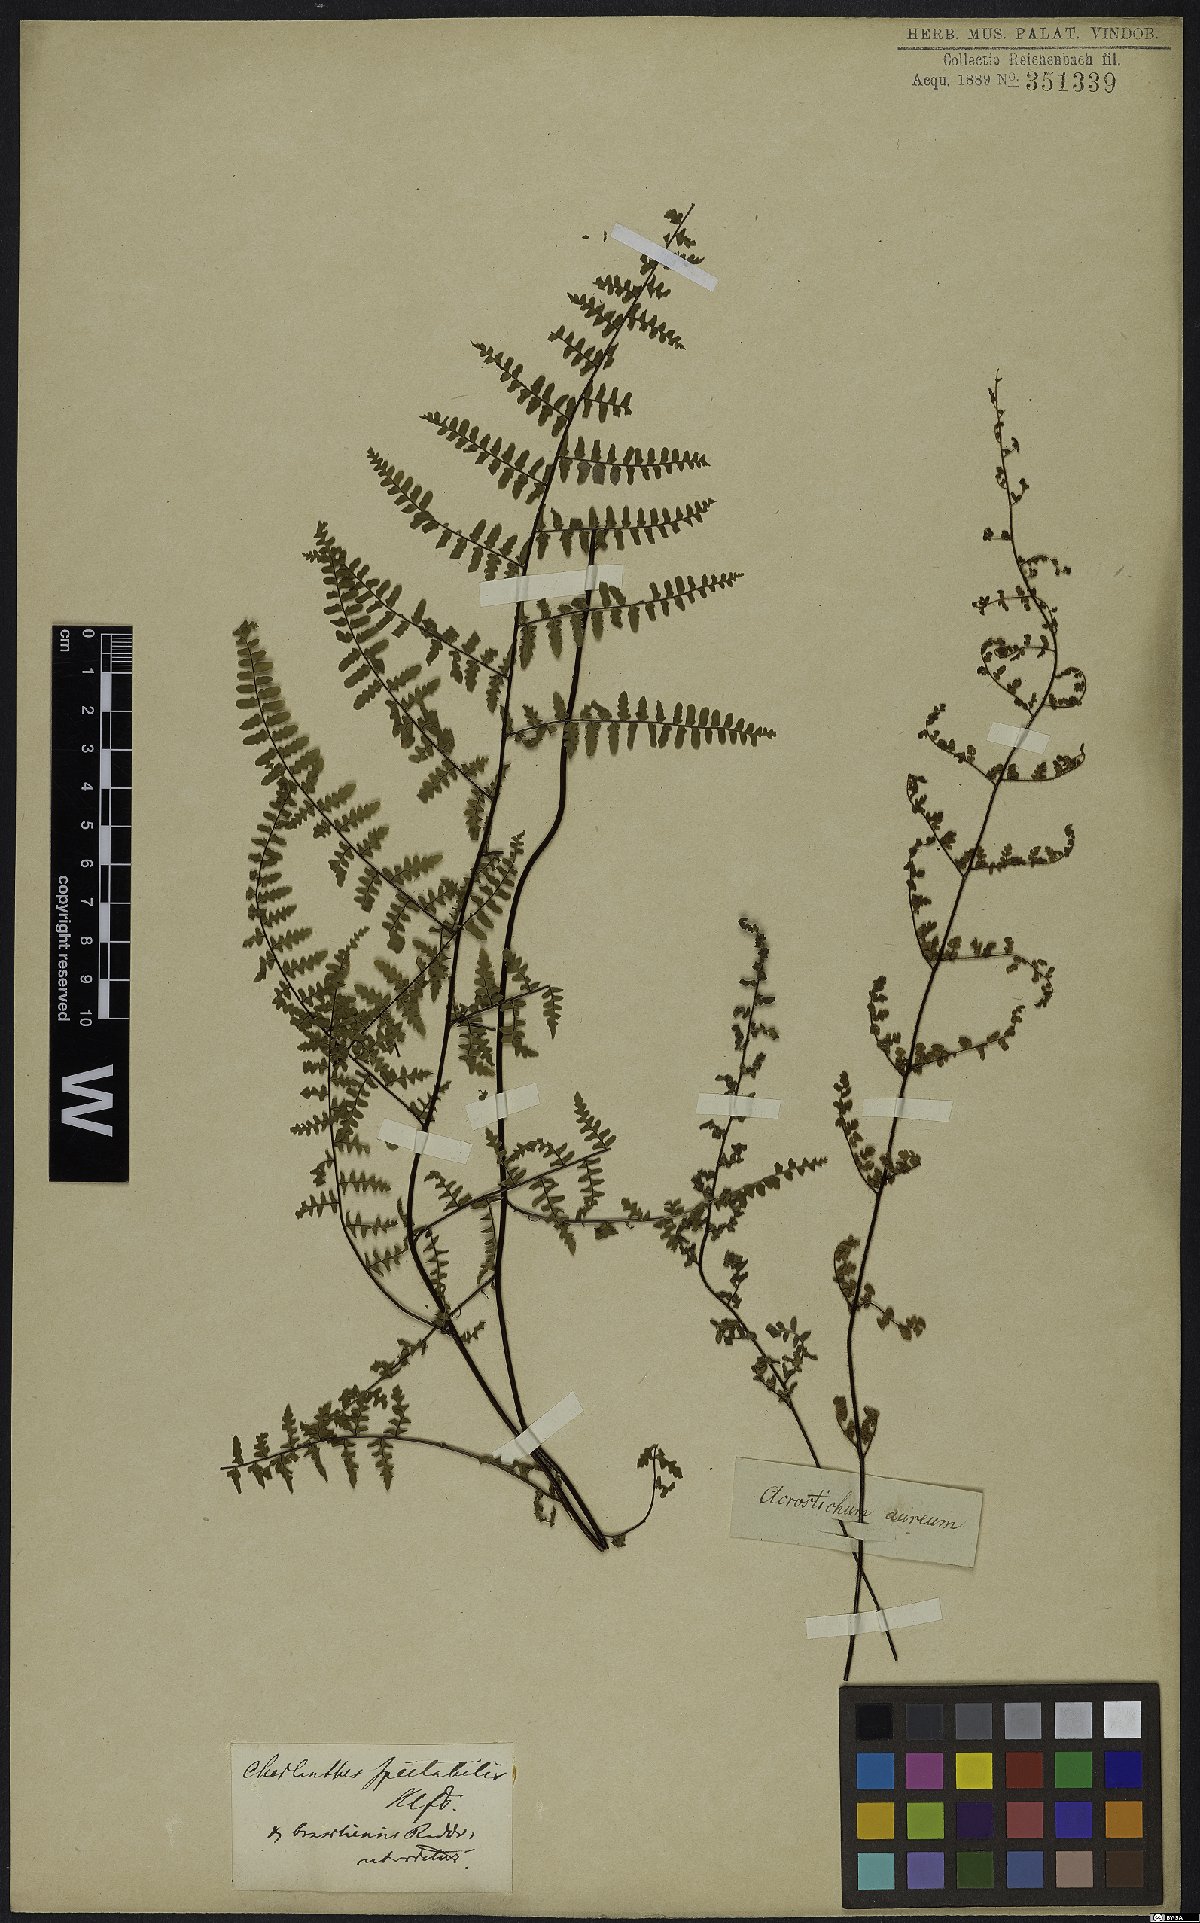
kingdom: Plantae
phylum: Tracheophyta
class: Polypodiopsida
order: Polypodiales
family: Pteridaceae
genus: Adiantopsis
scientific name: Adiantopsis chlorophylla
